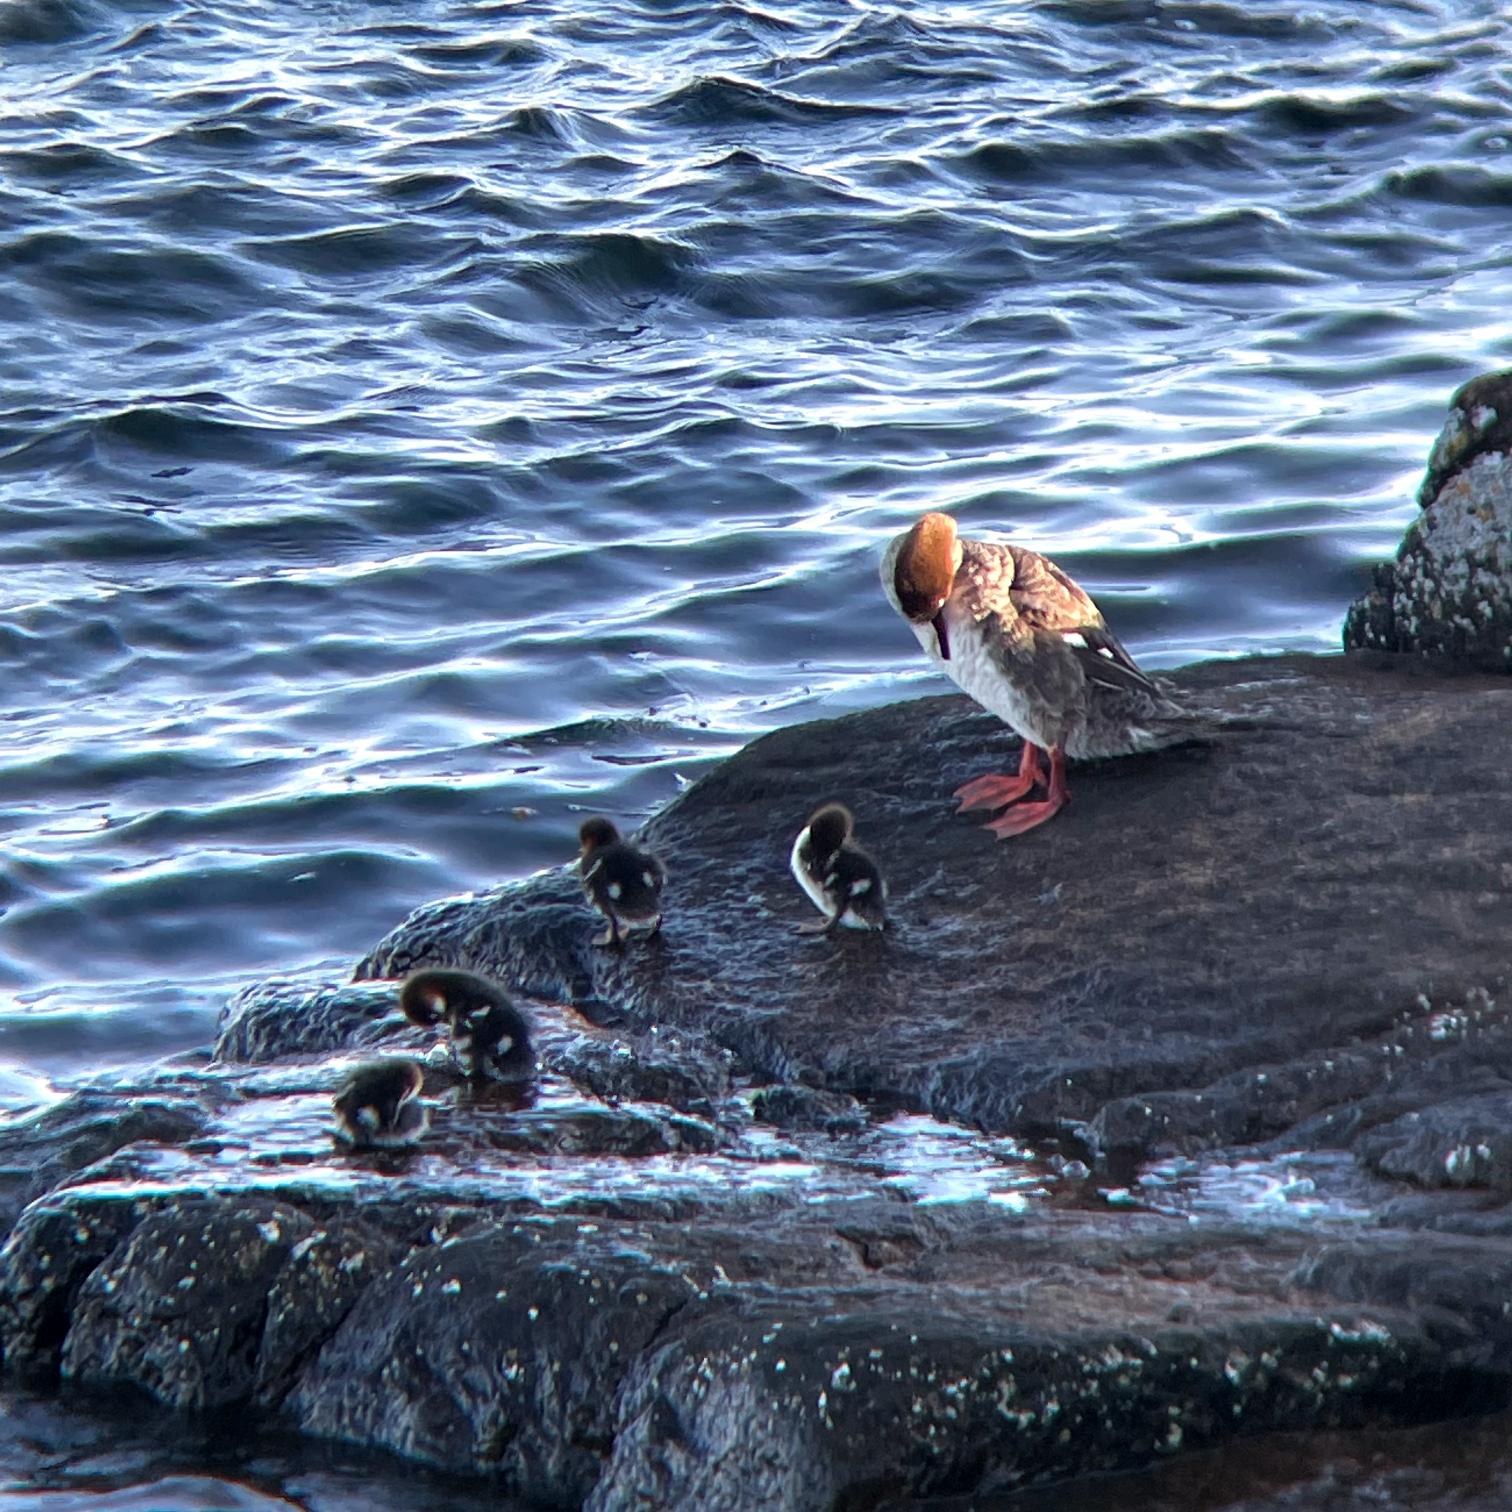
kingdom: Animalia
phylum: Chordata
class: Aves
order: Anseriformes
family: Anatidae
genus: Mergus
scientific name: Mergus serrator
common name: Toppet skallesluger
